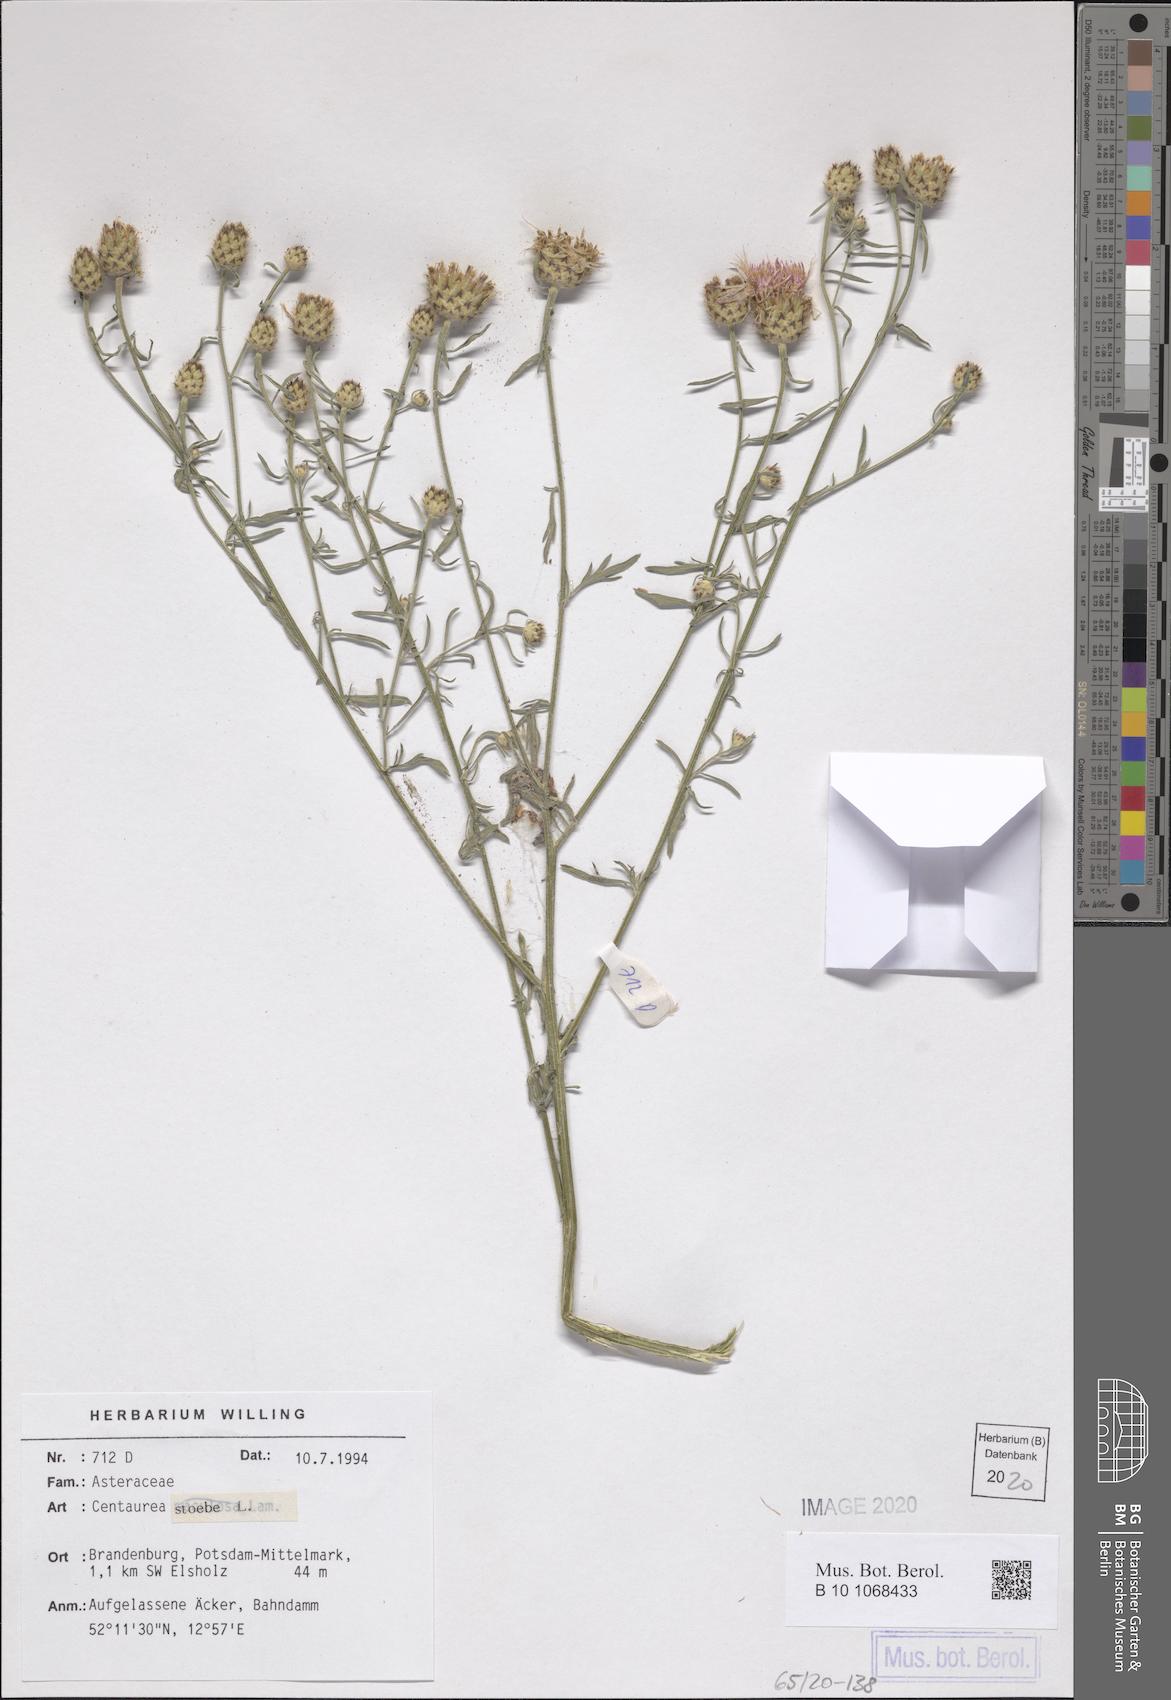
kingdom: Plantae
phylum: Tracheophyta
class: Magnoliopsida
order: Asterales
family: Asteraceae
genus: Centaurea
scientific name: Centaurea stoebe
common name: Spotted knapweed
